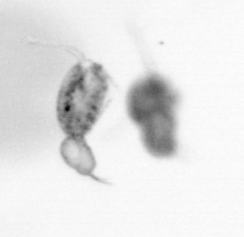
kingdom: Animalia
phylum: Arthropoda
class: Copepoda
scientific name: Copepoda
